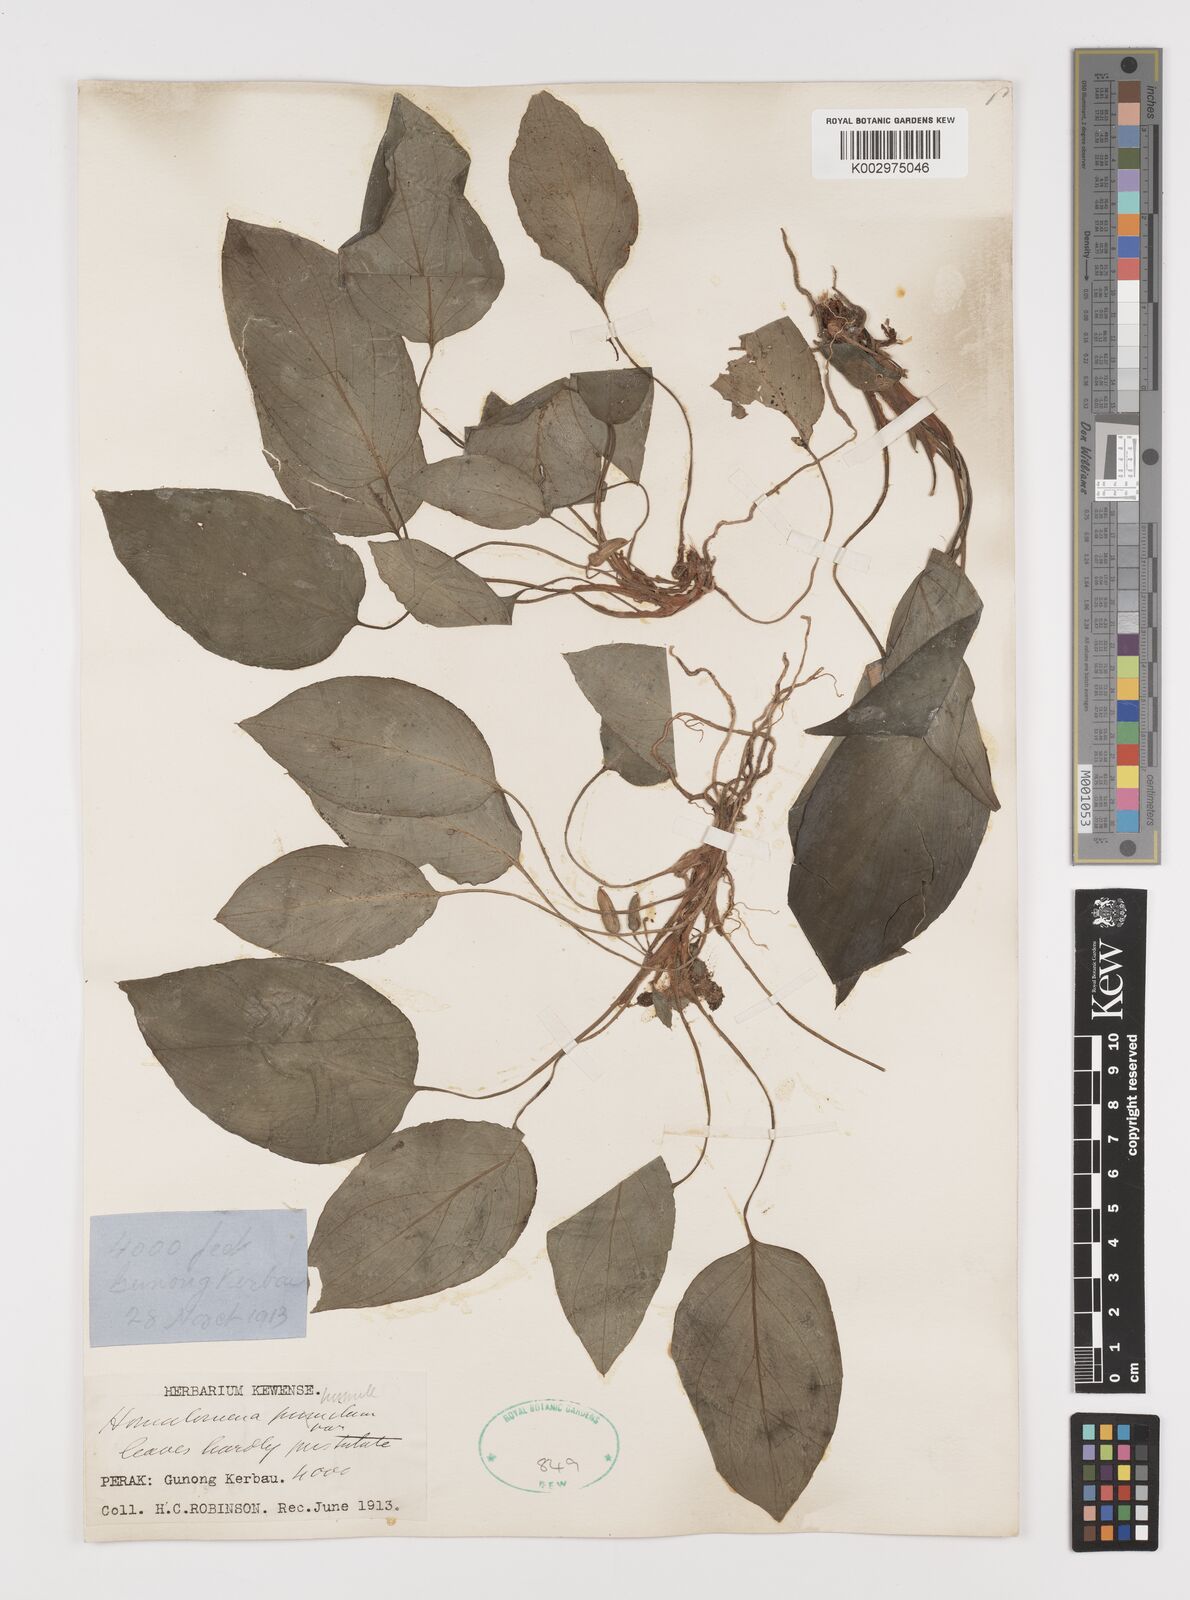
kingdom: Plantae
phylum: Tracheophyta
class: Liliopsida
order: Alismatales
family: Araceae
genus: Homalomena
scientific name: Homalomena humilis
